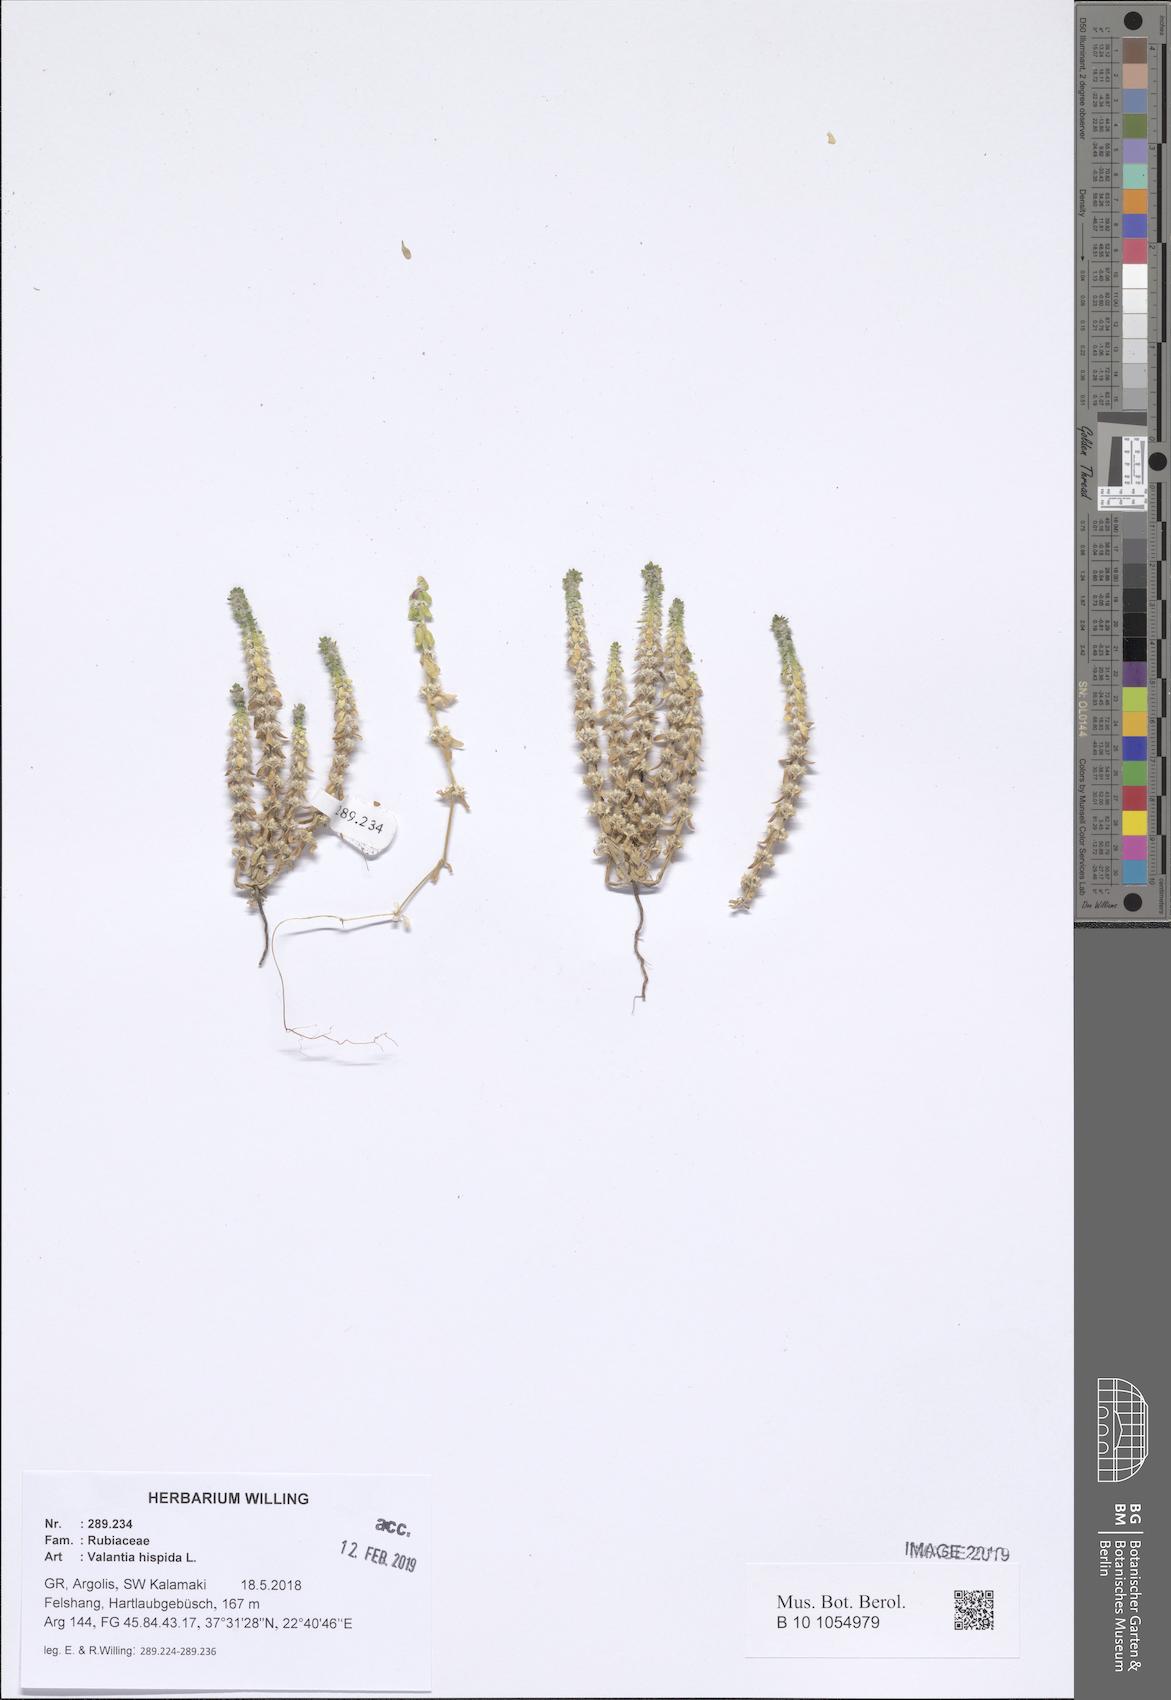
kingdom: Plantae
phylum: Tracheophyta
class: Magnoliopsida
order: Gentianales
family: Rubiaceae
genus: Valantia
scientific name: Valantia hispida
